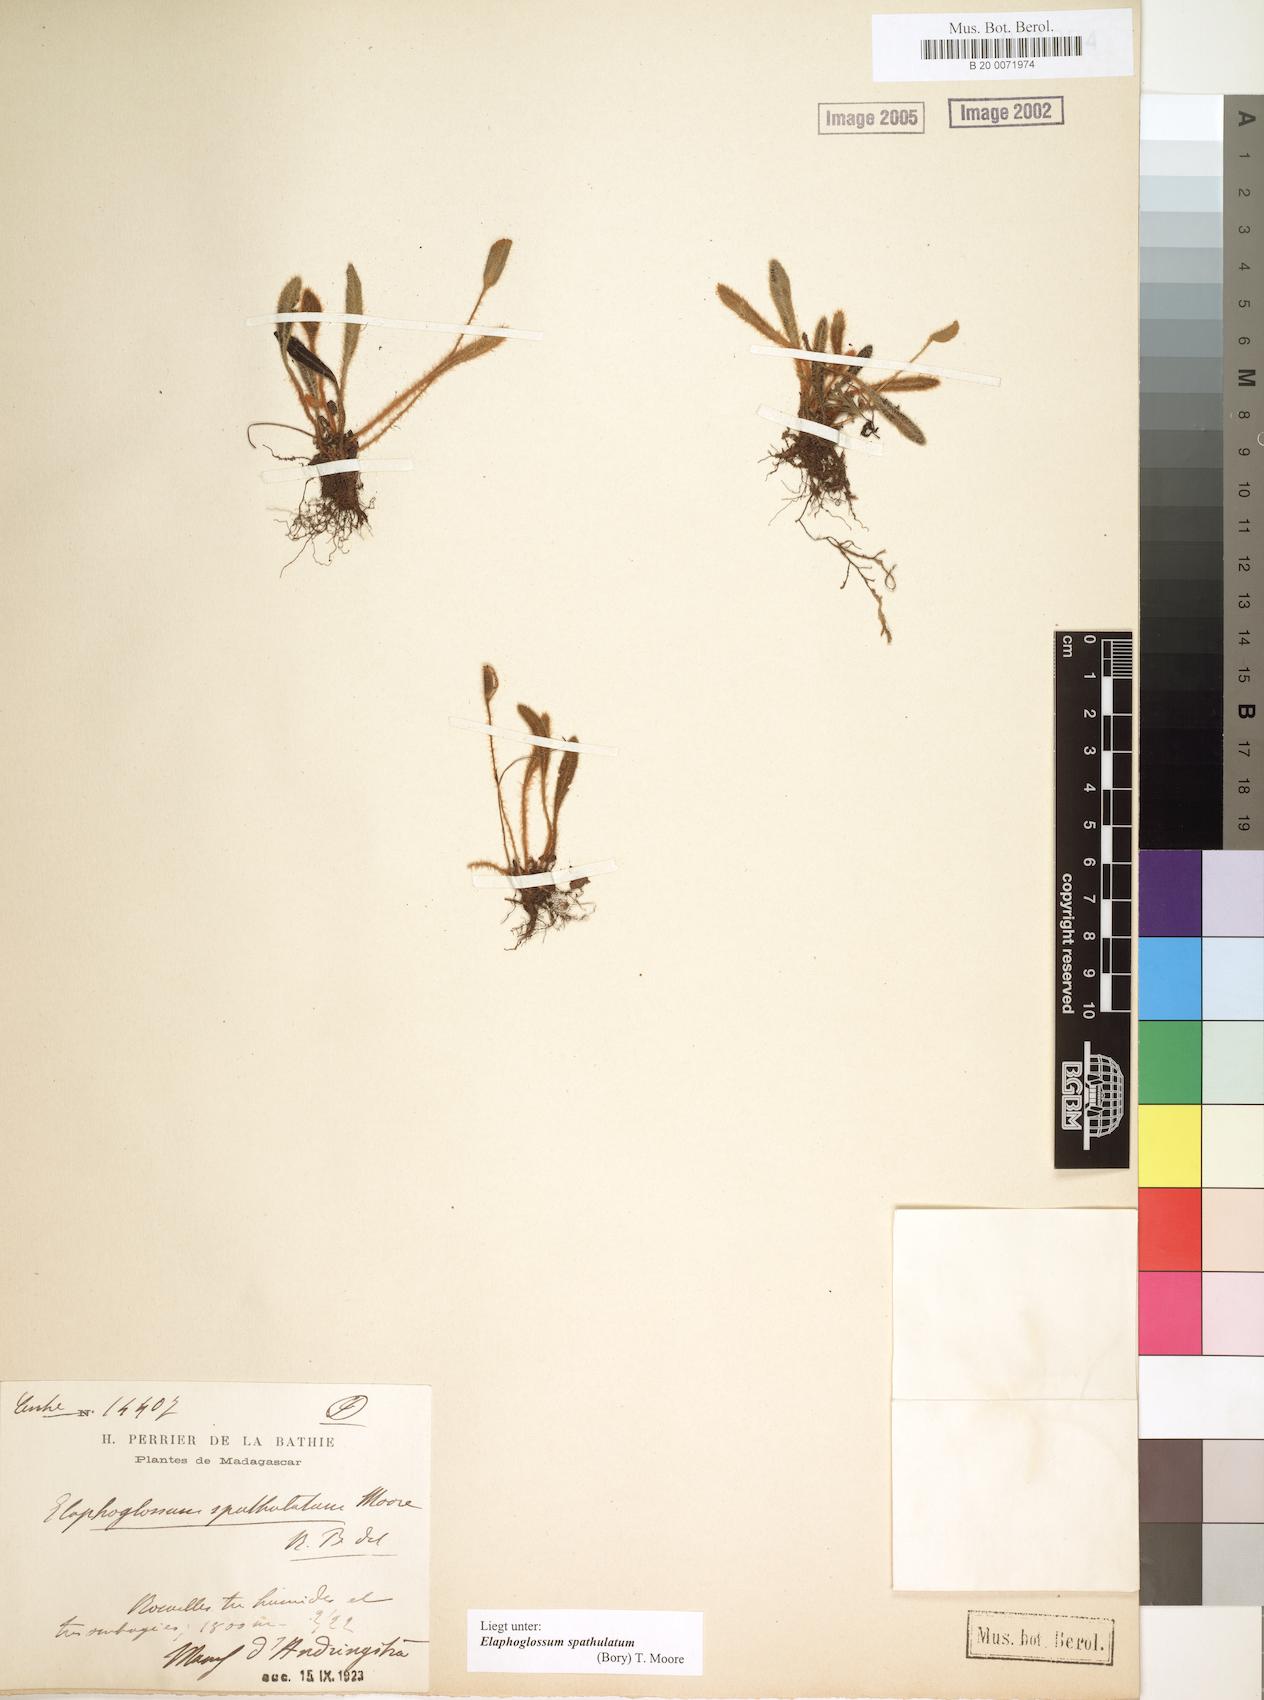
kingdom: Plantae
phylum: Tracheophyta
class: Polypodiopsida
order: Polypodiales
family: Dryopteridaceae
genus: Elaphoglossum
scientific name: Elaphoglossum spatulatum
